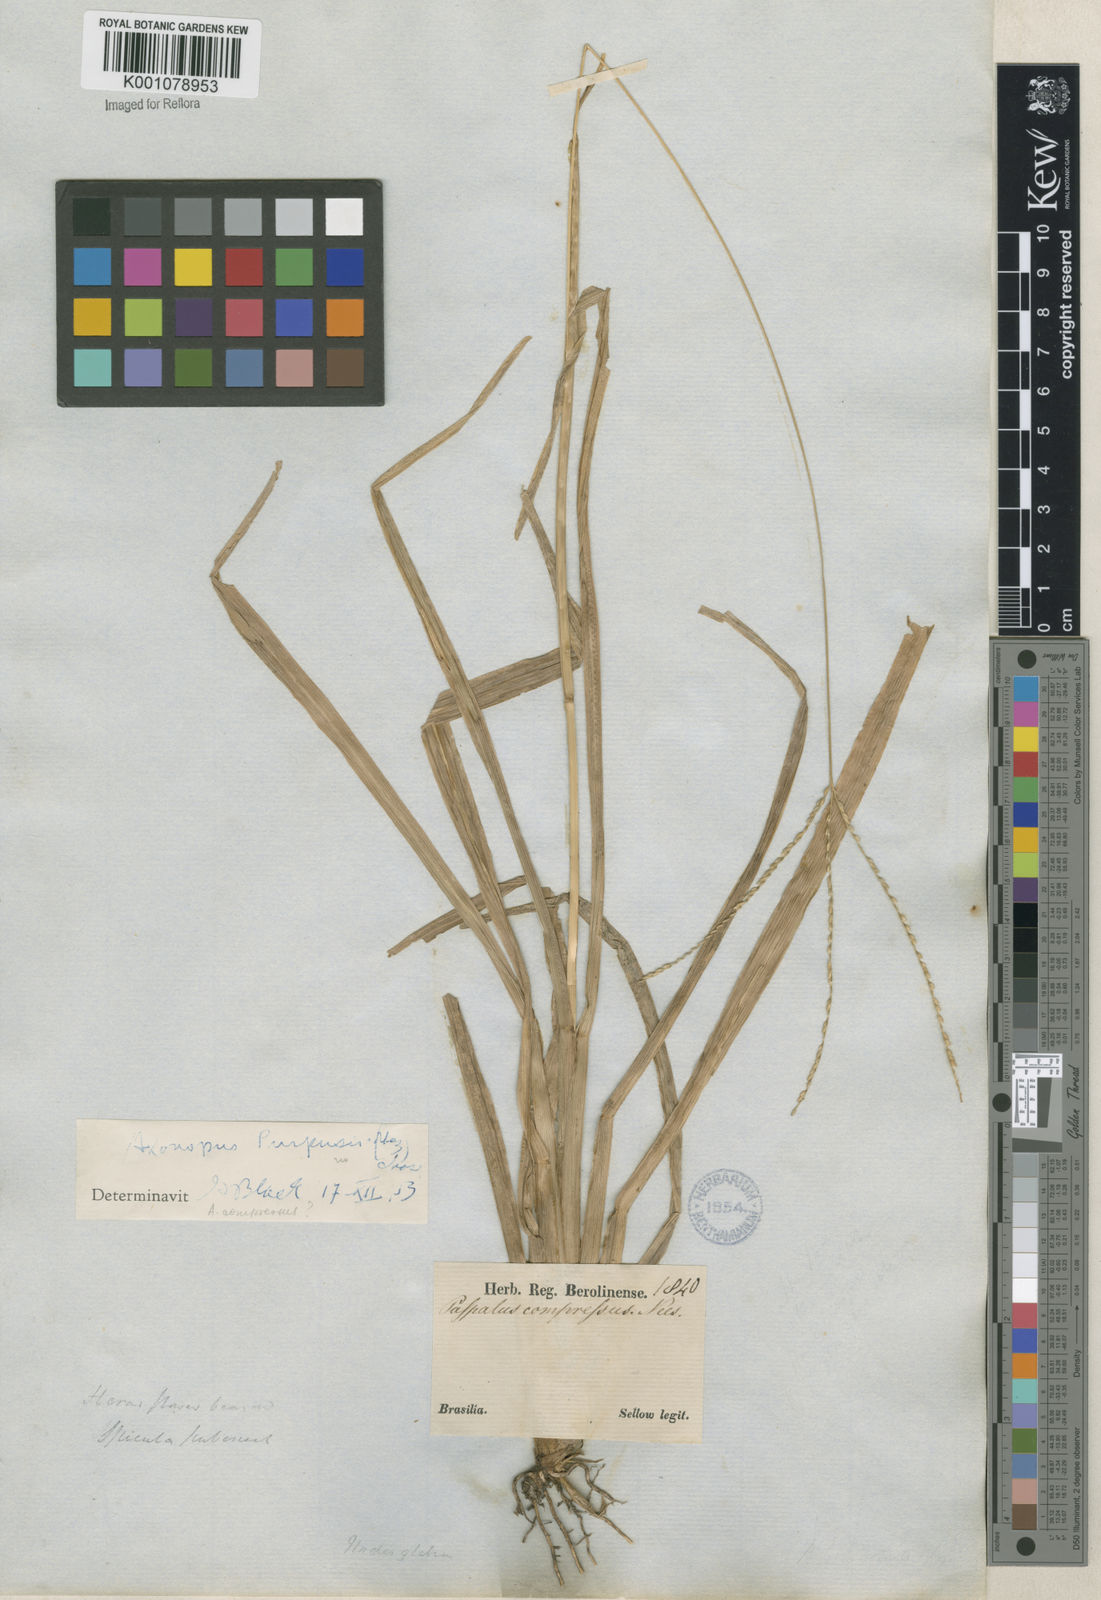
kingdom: Plantae
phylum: Tracheophyta
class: Liliopsida
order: Poales
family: Poaceae
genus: Axonopus
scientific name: Axonopus compressus
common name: American carpet grass
